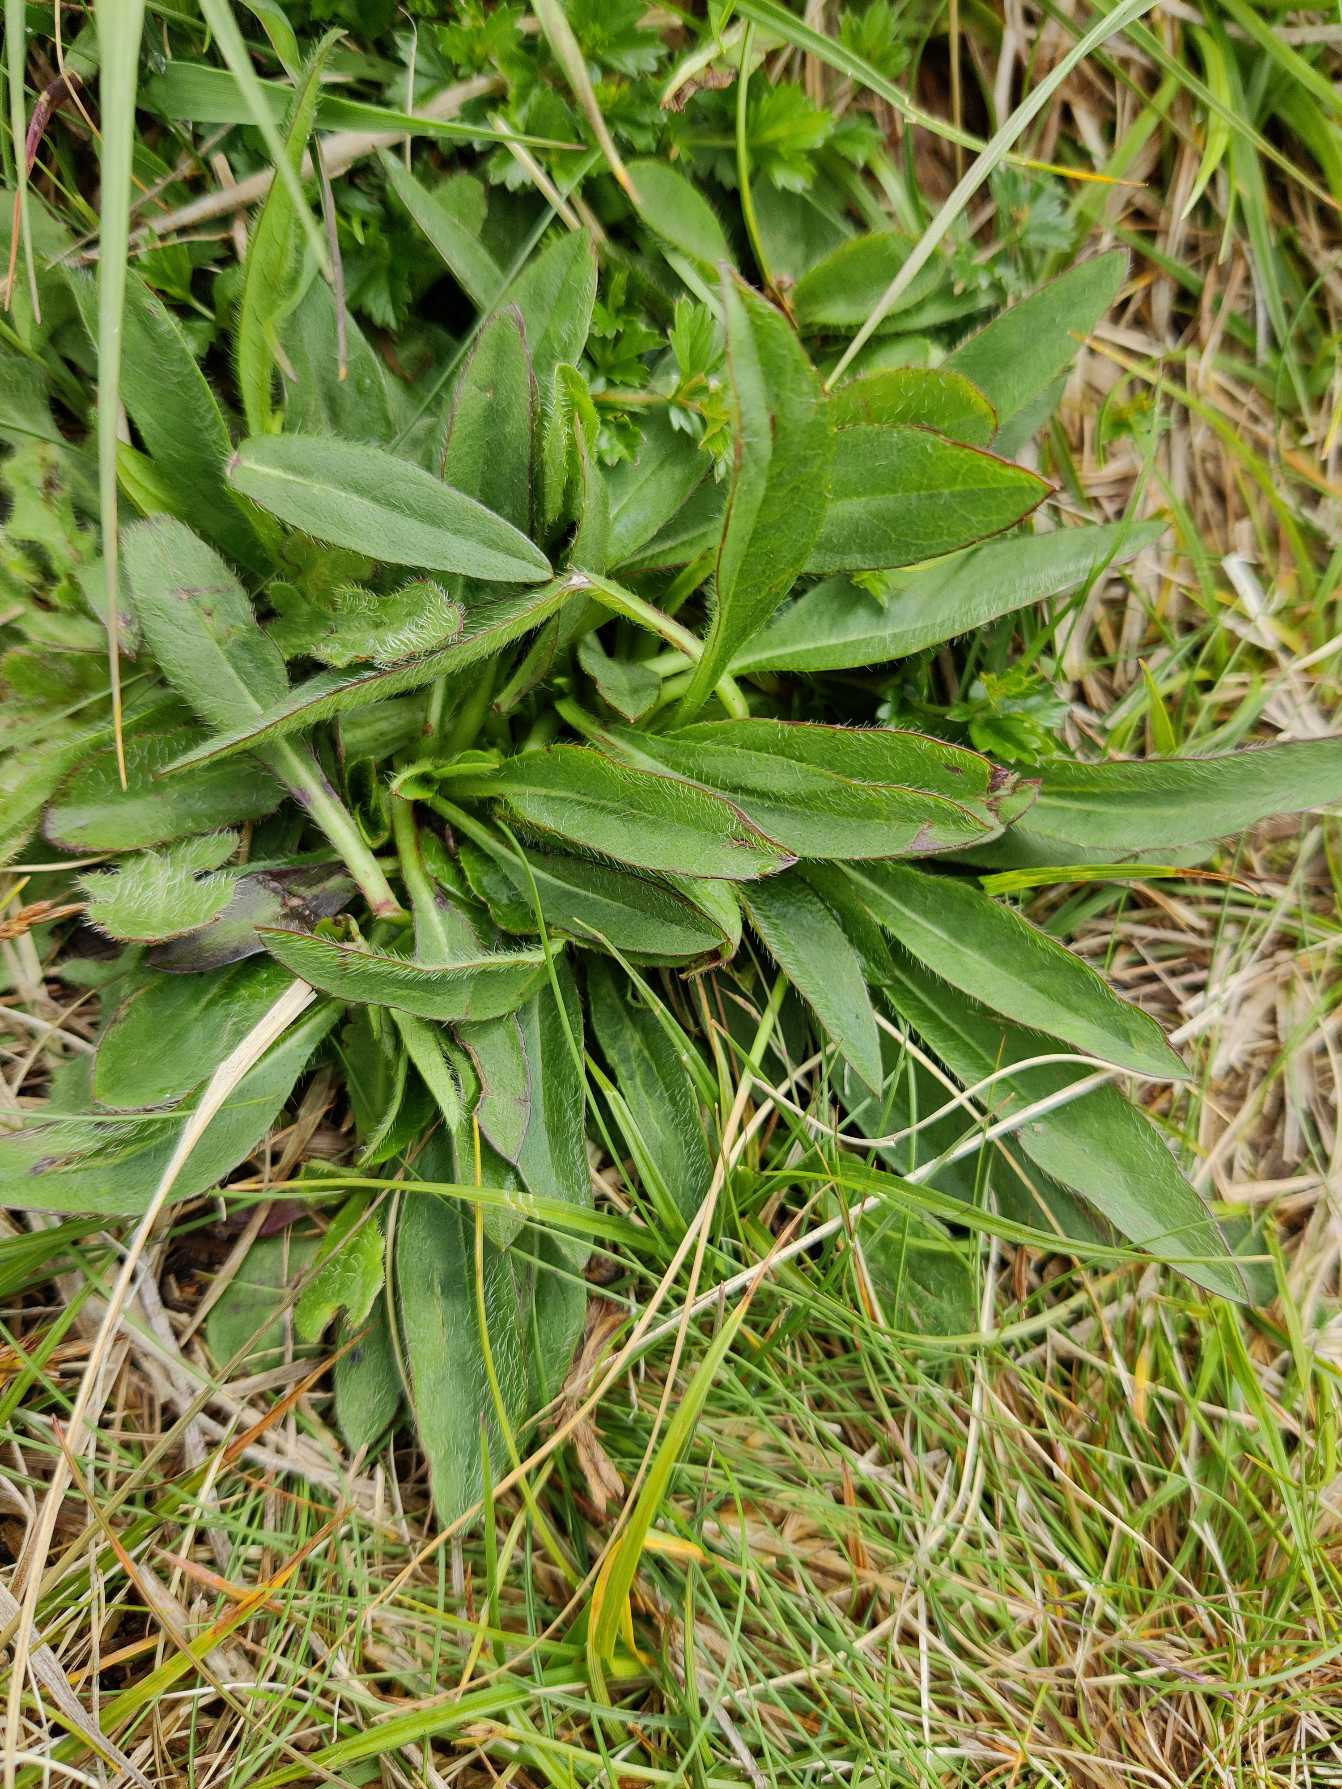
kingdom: Plantae
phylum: Tracheophyta
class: Magnoliopsida
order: Dipsacales
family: Caprifoliaceae
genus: Succisa
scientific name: Succisa pratensis
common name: Djævelsbid
